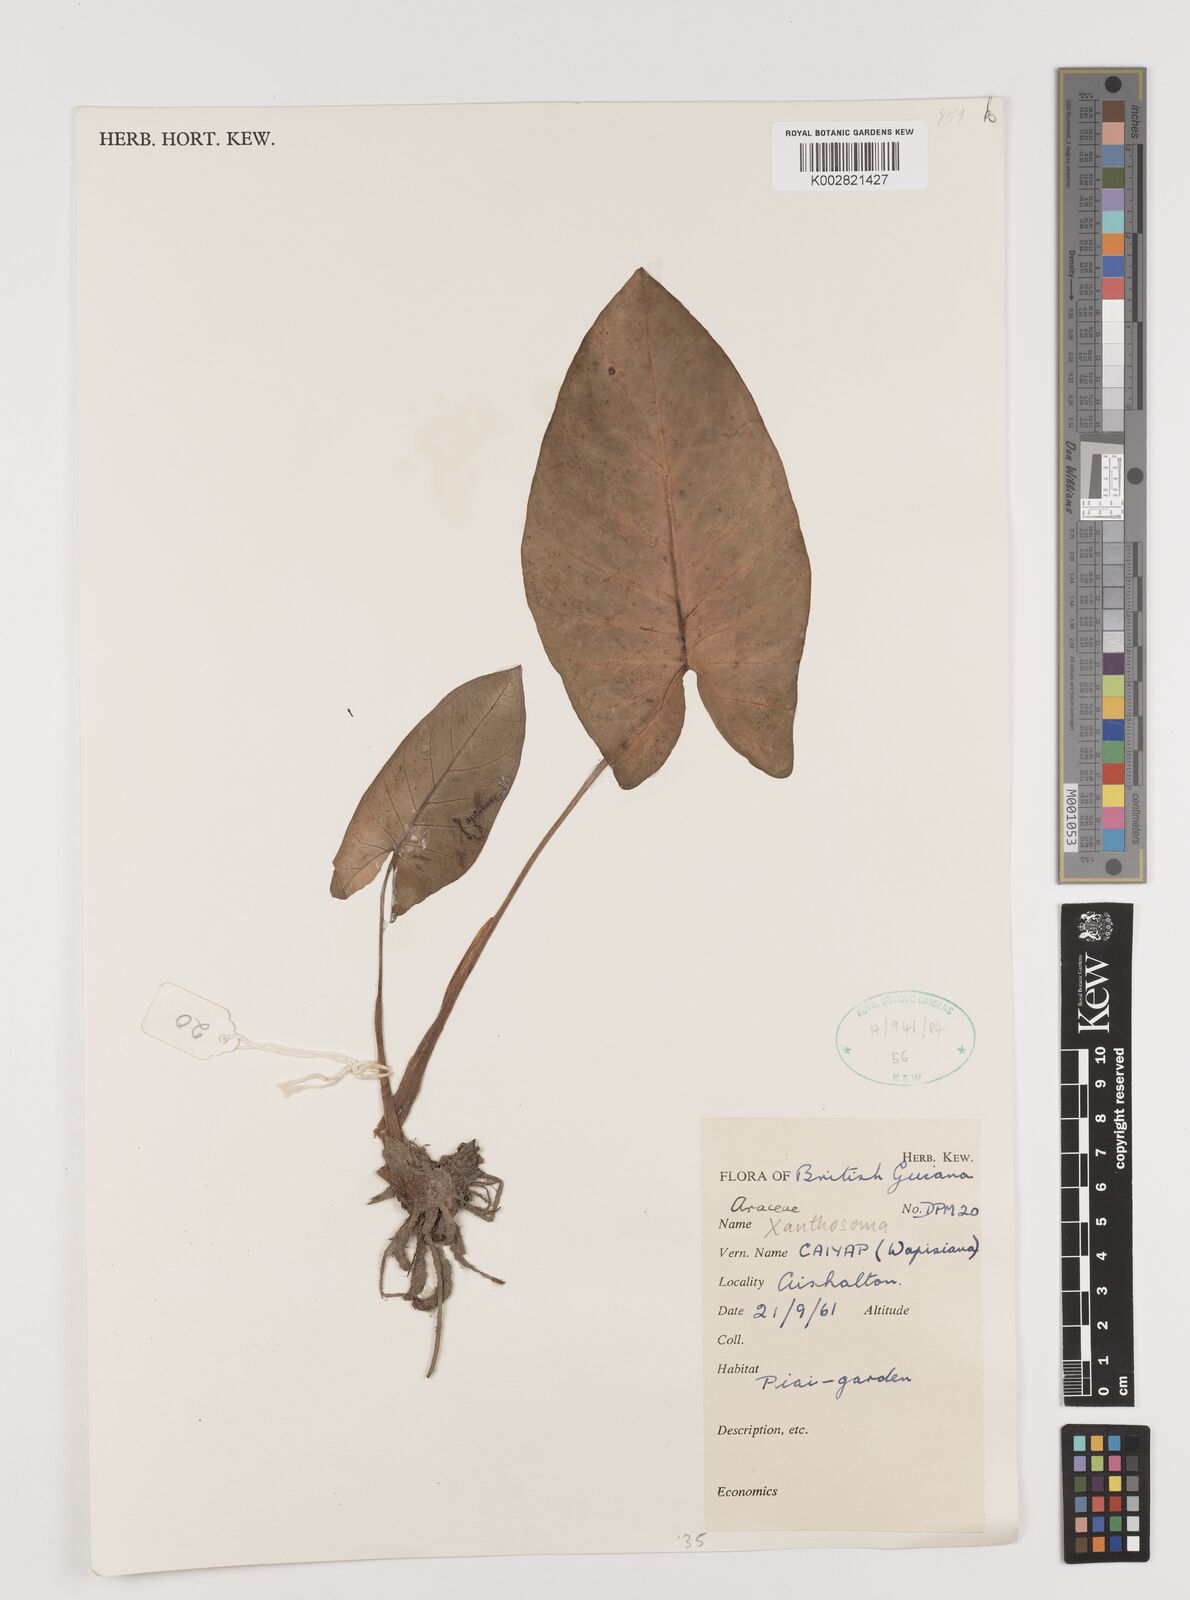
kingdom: Plantae
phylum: Tracheophyta
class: Liliopsida
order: Alismatales
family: Araceae
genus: Xanthosoma
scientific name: Xanthosoma
